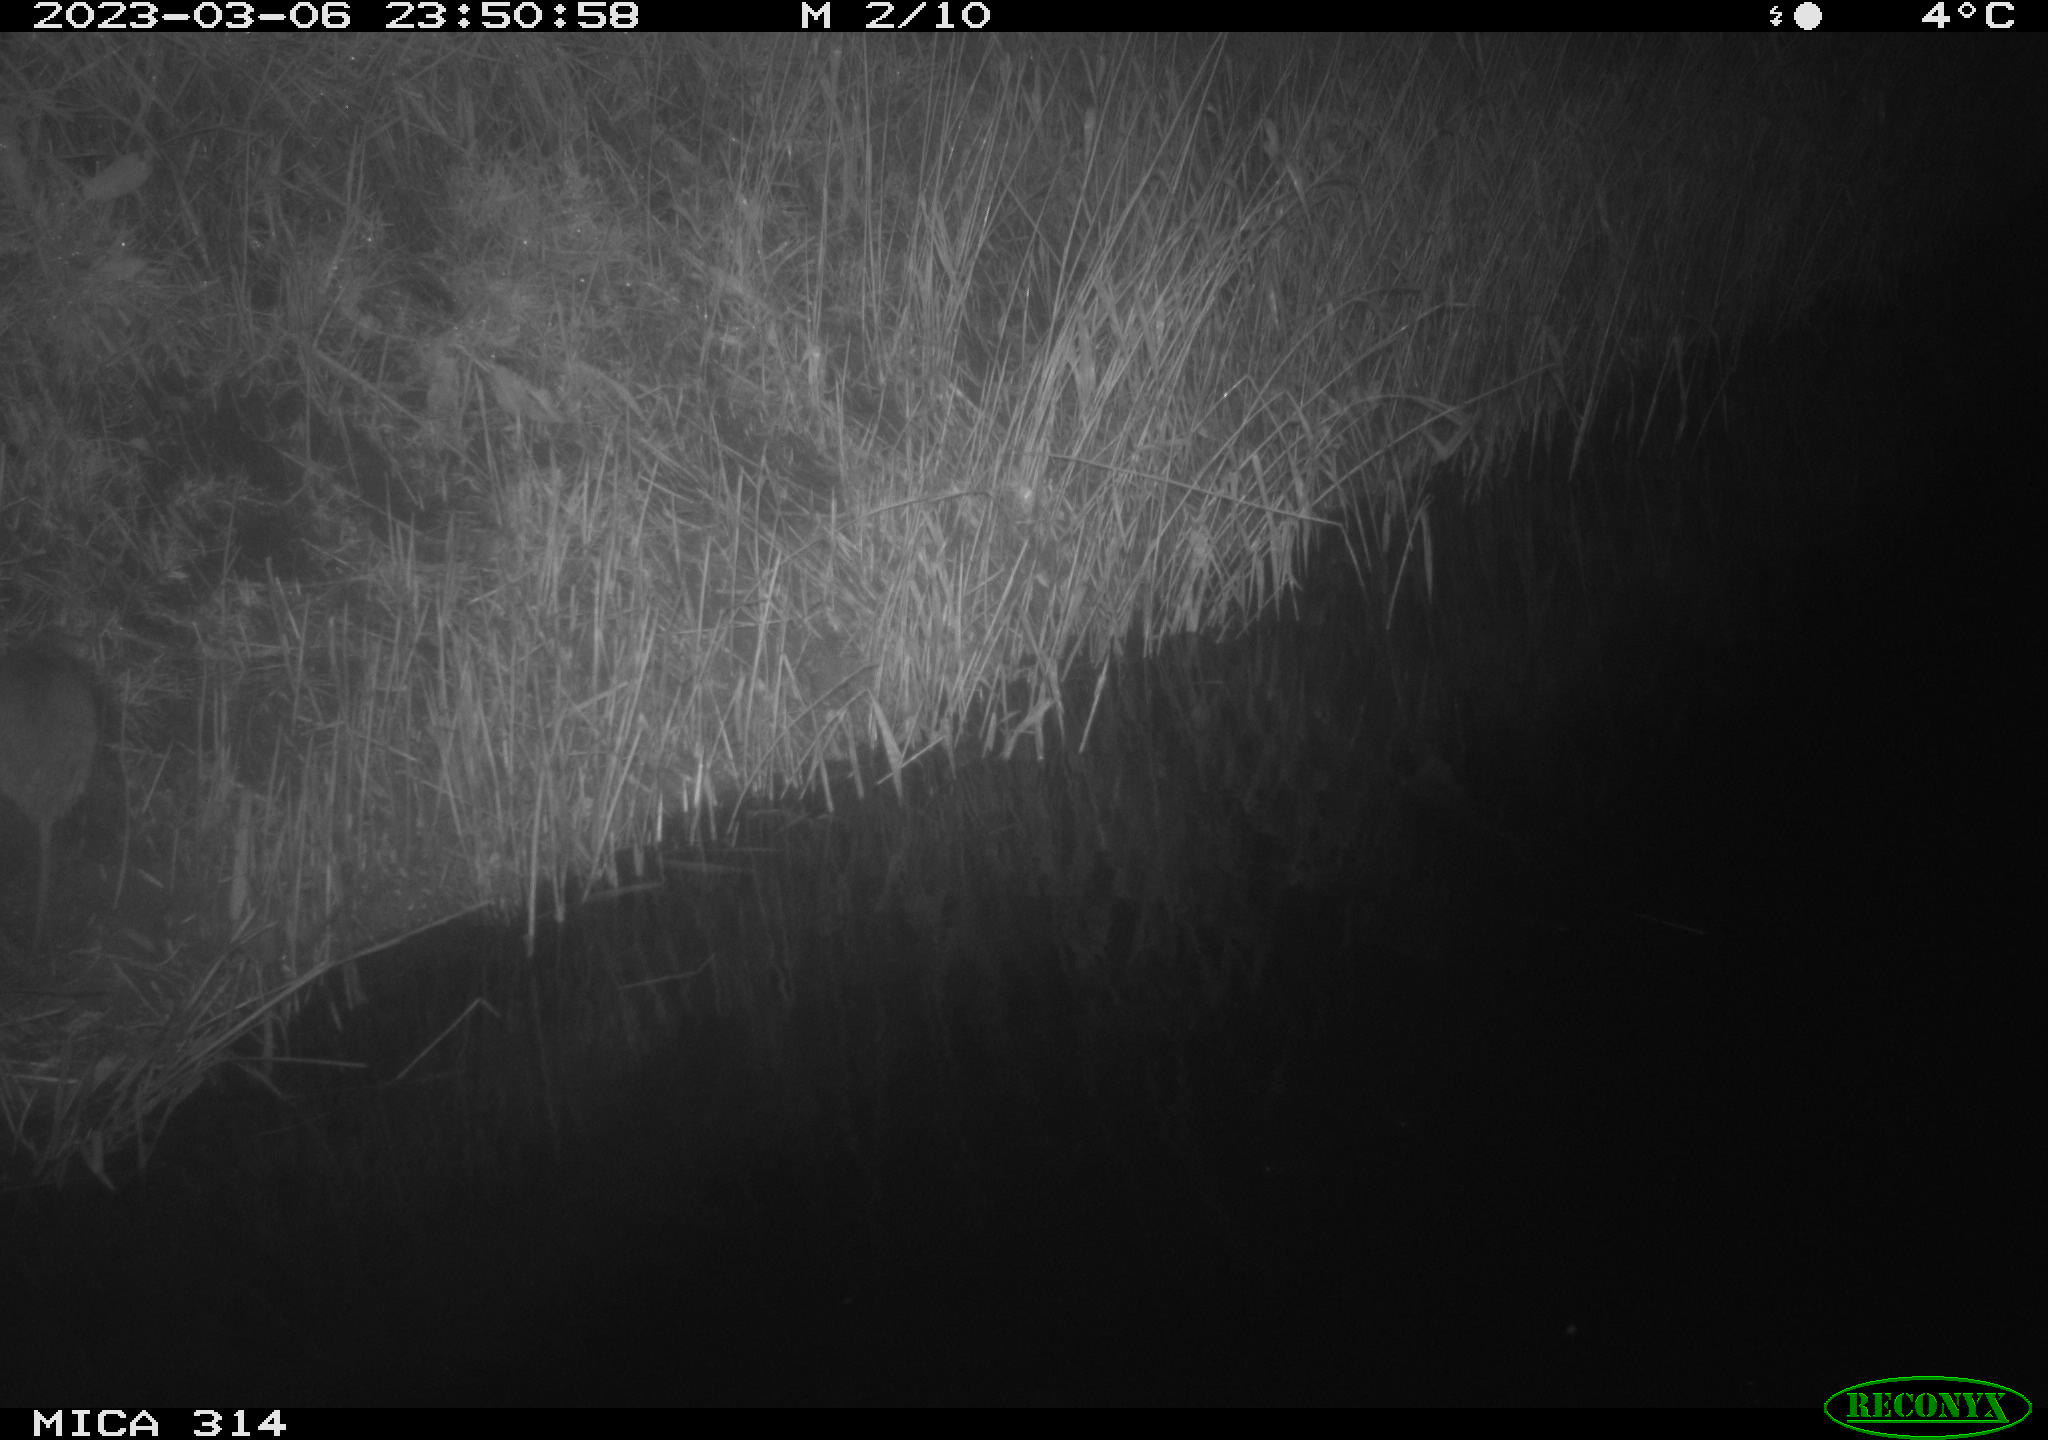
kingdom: Animalia
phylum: Chordata
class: Mammalia
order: Rodentia
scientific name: Rodentia
